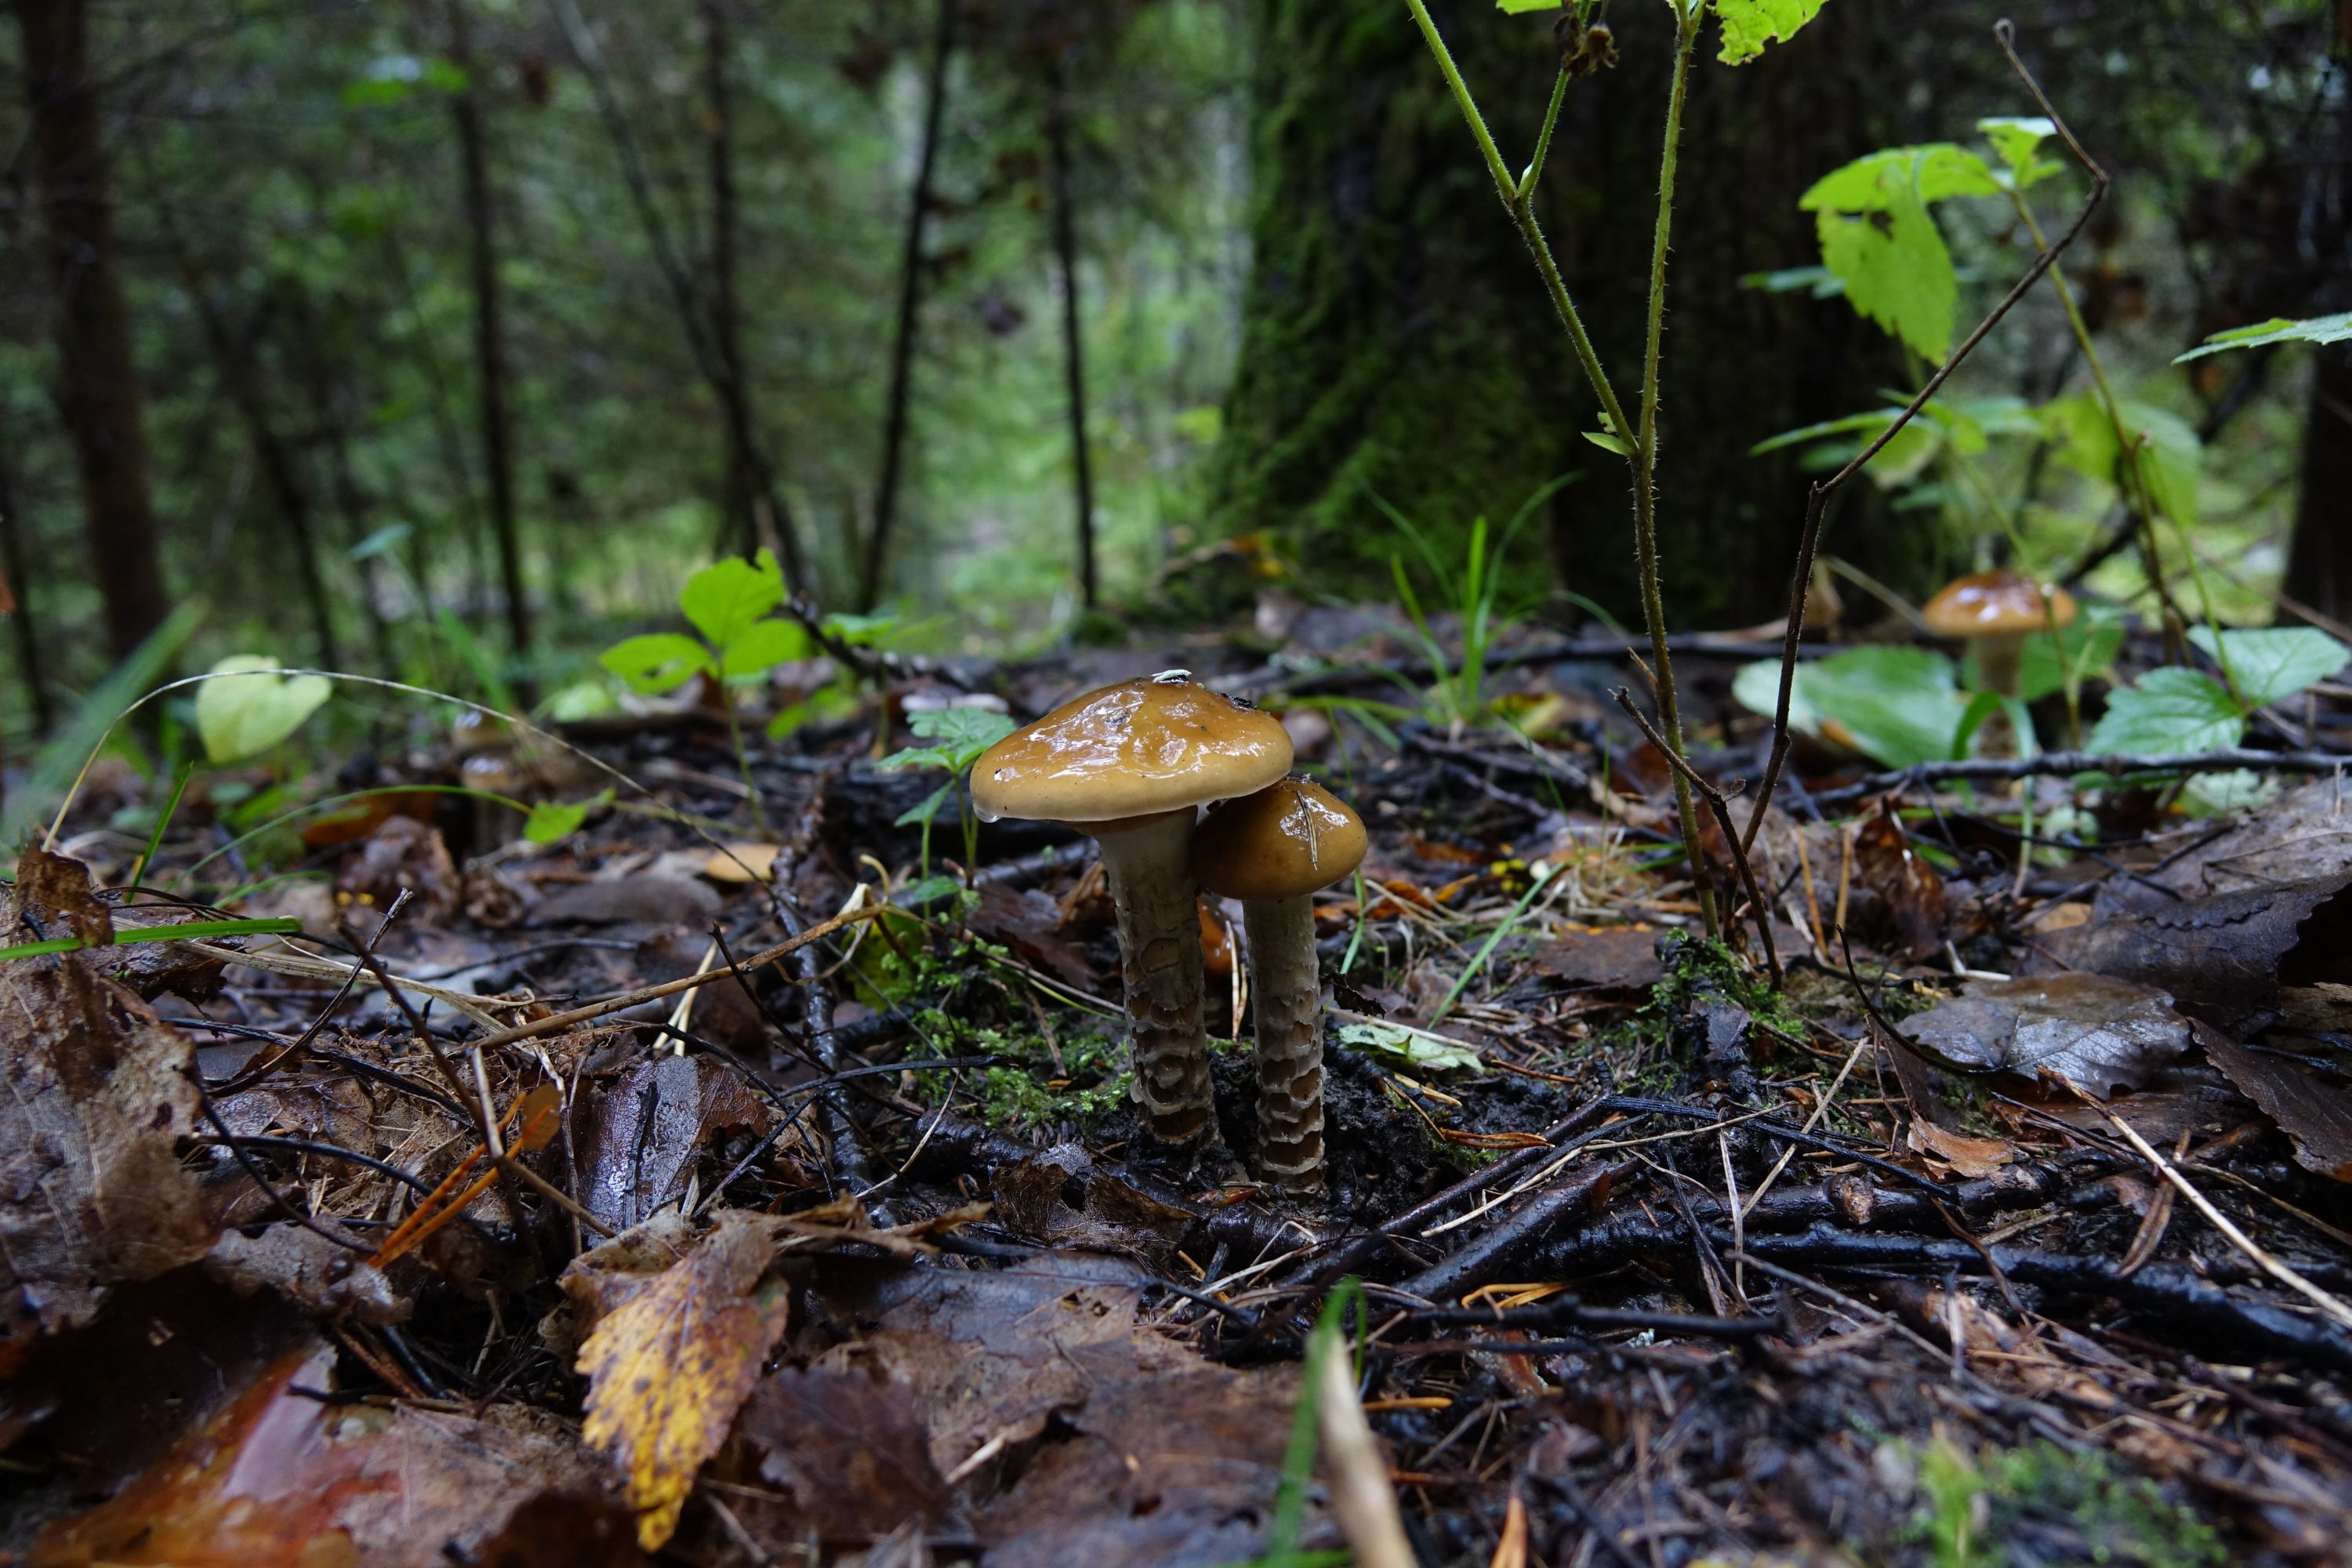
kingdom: Fungi
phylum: Basidiomycota
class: Agaricomycetes
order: Agaricales
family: Cortinariaceae
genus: Cortinarius
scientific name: Cortinarius trivialis
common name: Girdled webcap
